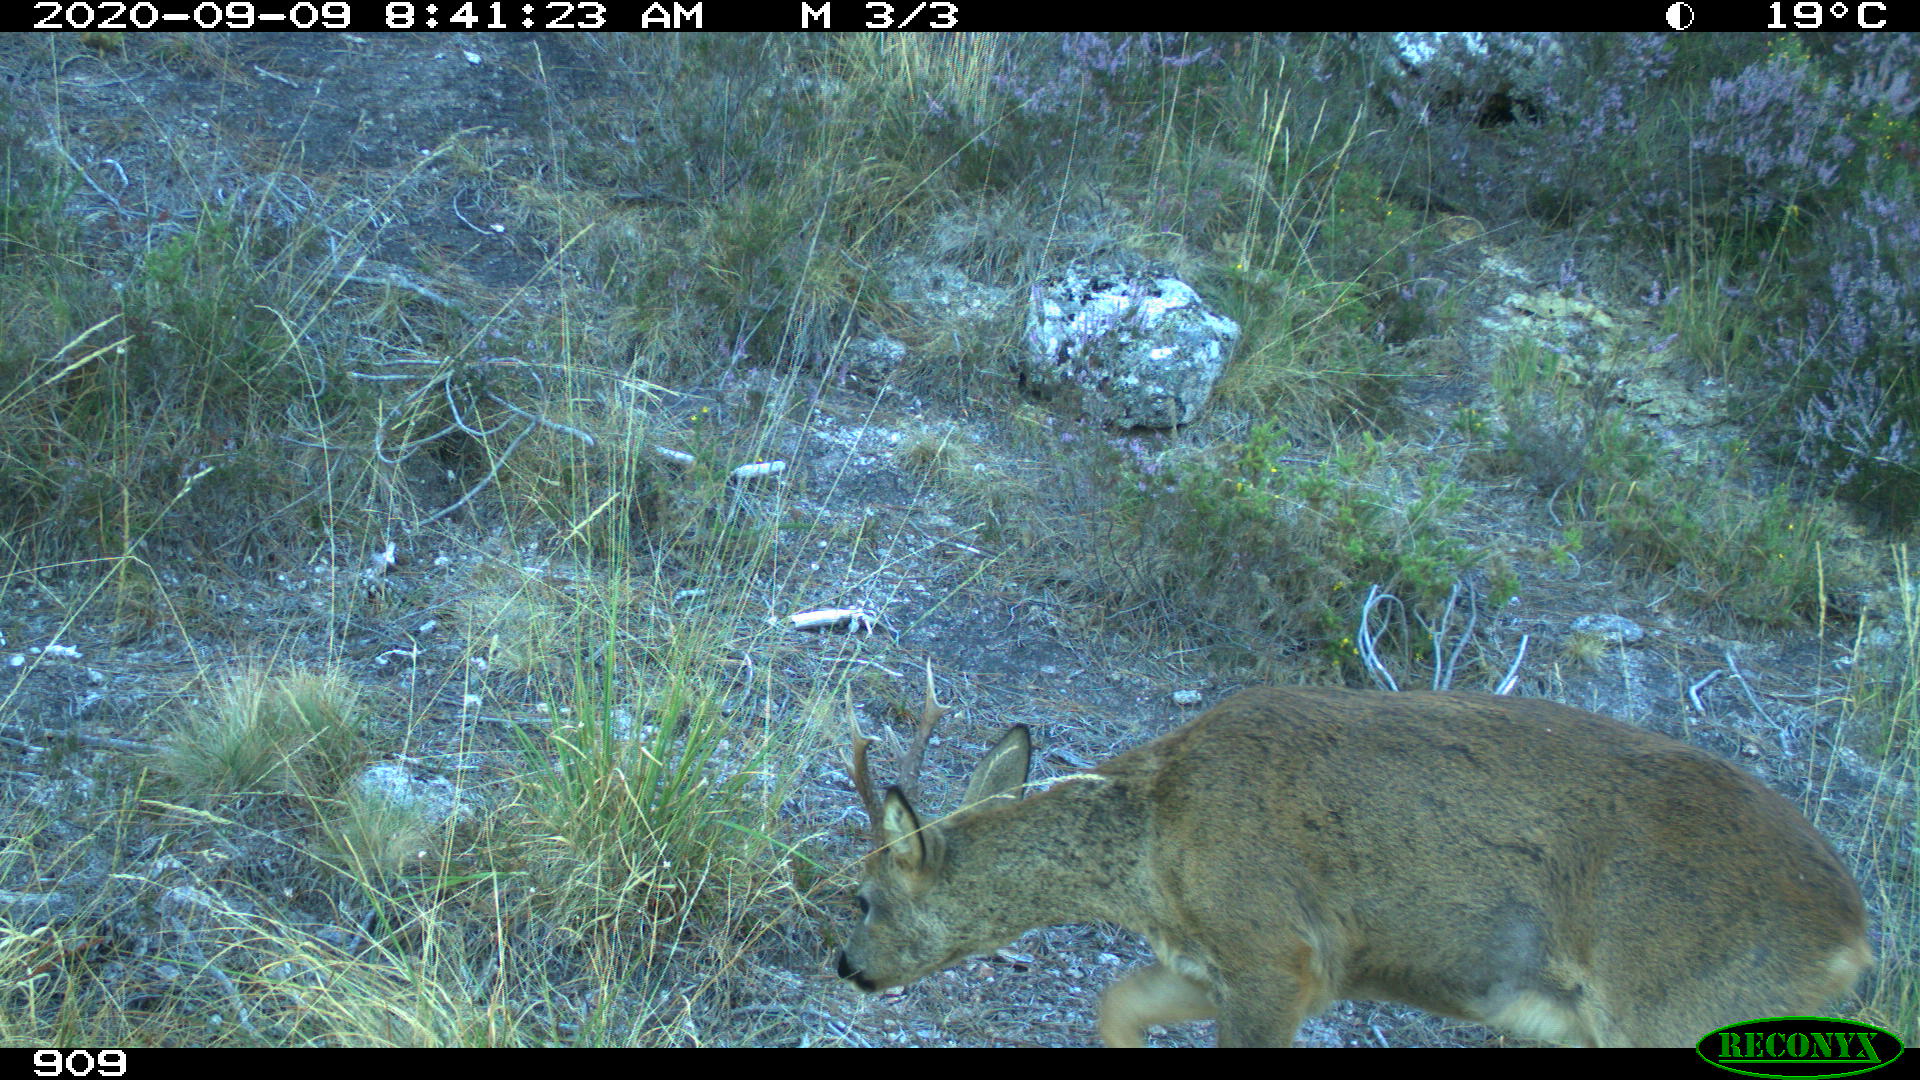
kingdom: Animalia
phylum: Chordata
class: Mammalia
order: Artiodactyla
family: Cervidae
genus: Capreolus
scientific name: Capreolus capreolus
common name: Western roe deer
